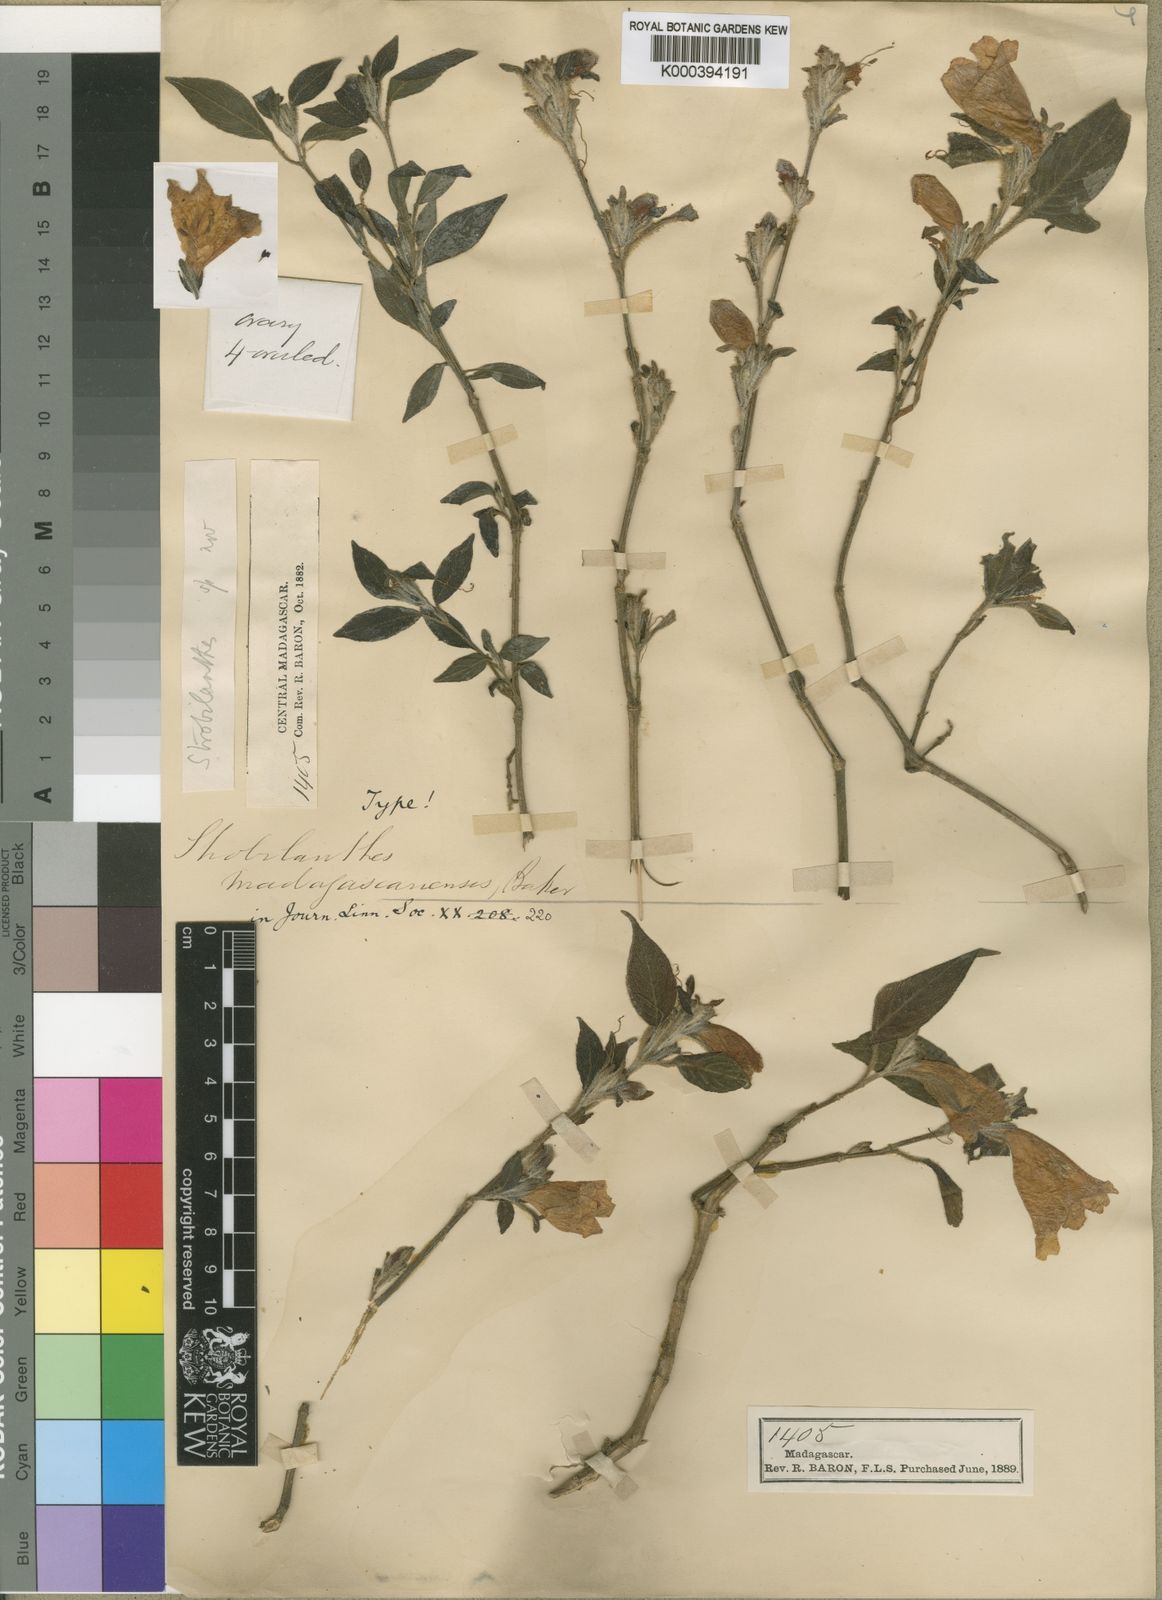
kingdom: Plantae
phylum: Tracheophyta
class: Magnoliopsida
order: Lamiales
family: Acanthaceae
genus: Acanthopale
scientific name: Acanthopale
